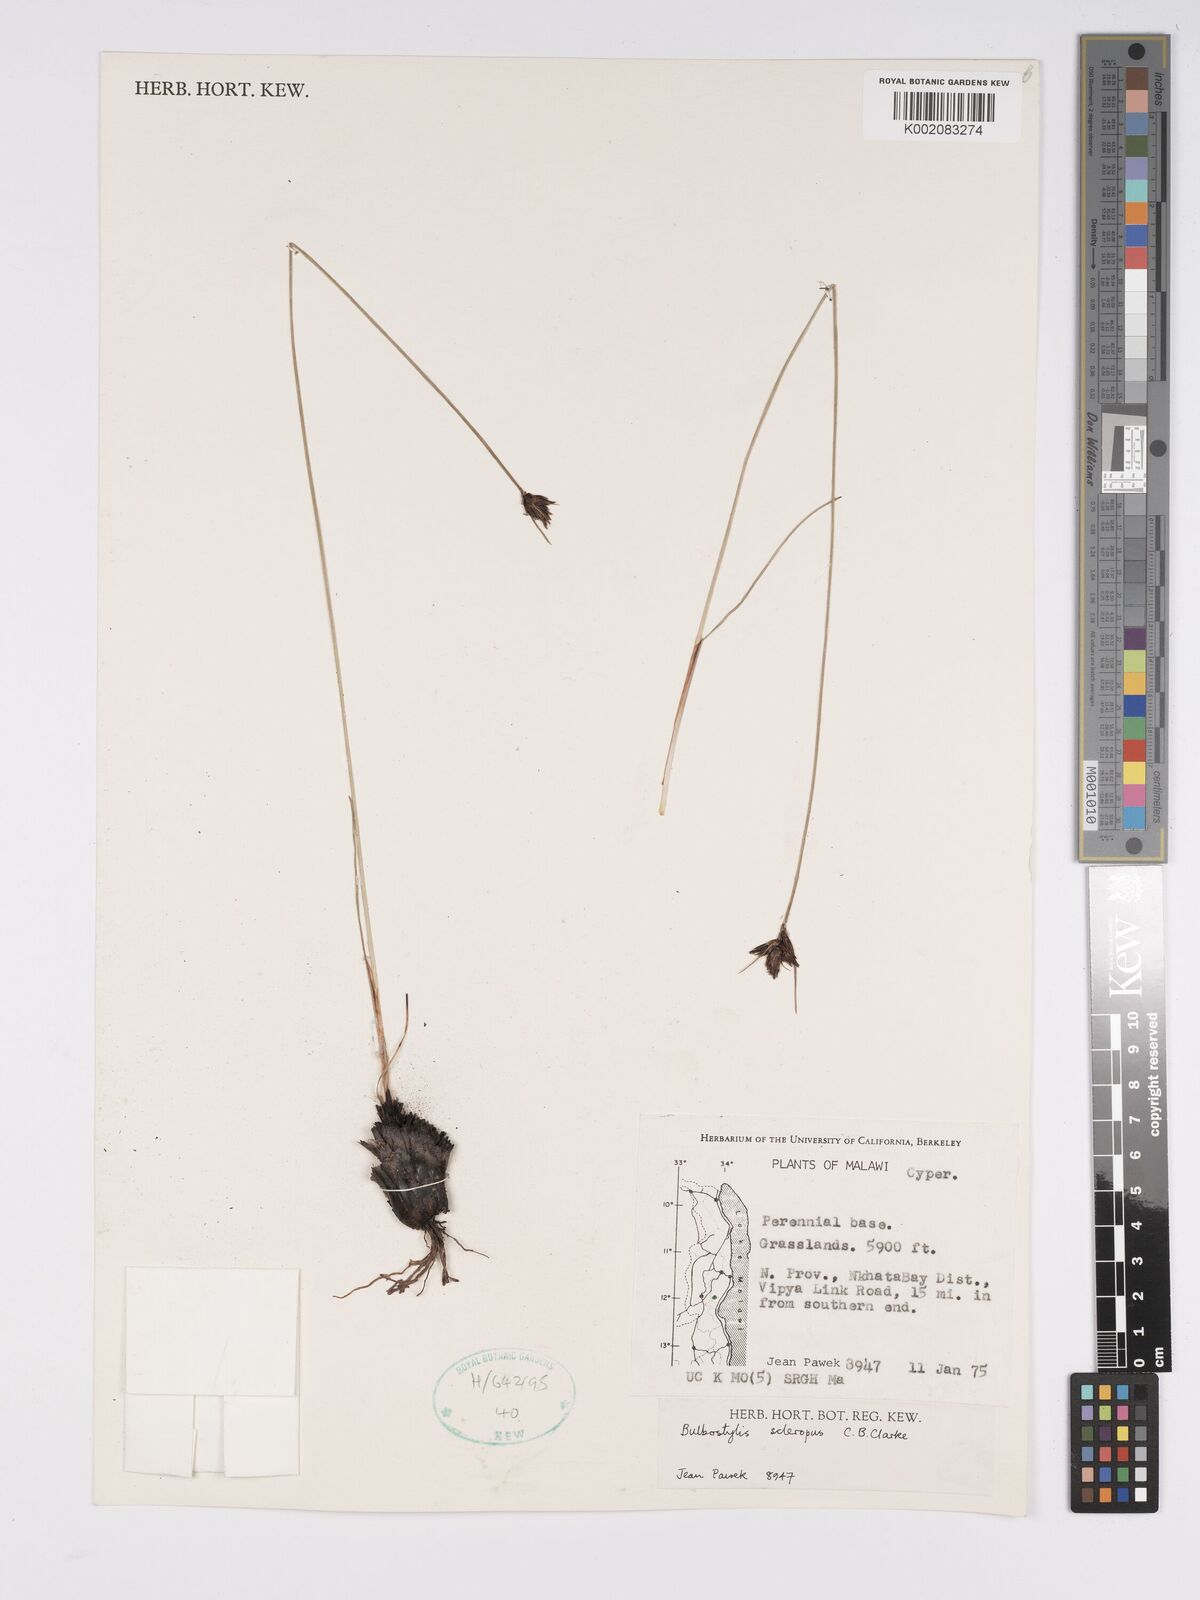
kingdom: Plantae
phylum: Tracheophyta
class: Liliopsida
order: Poales
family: Cyperaceae
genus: Bulbostylis
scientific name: Bulbostylis schoenoides
